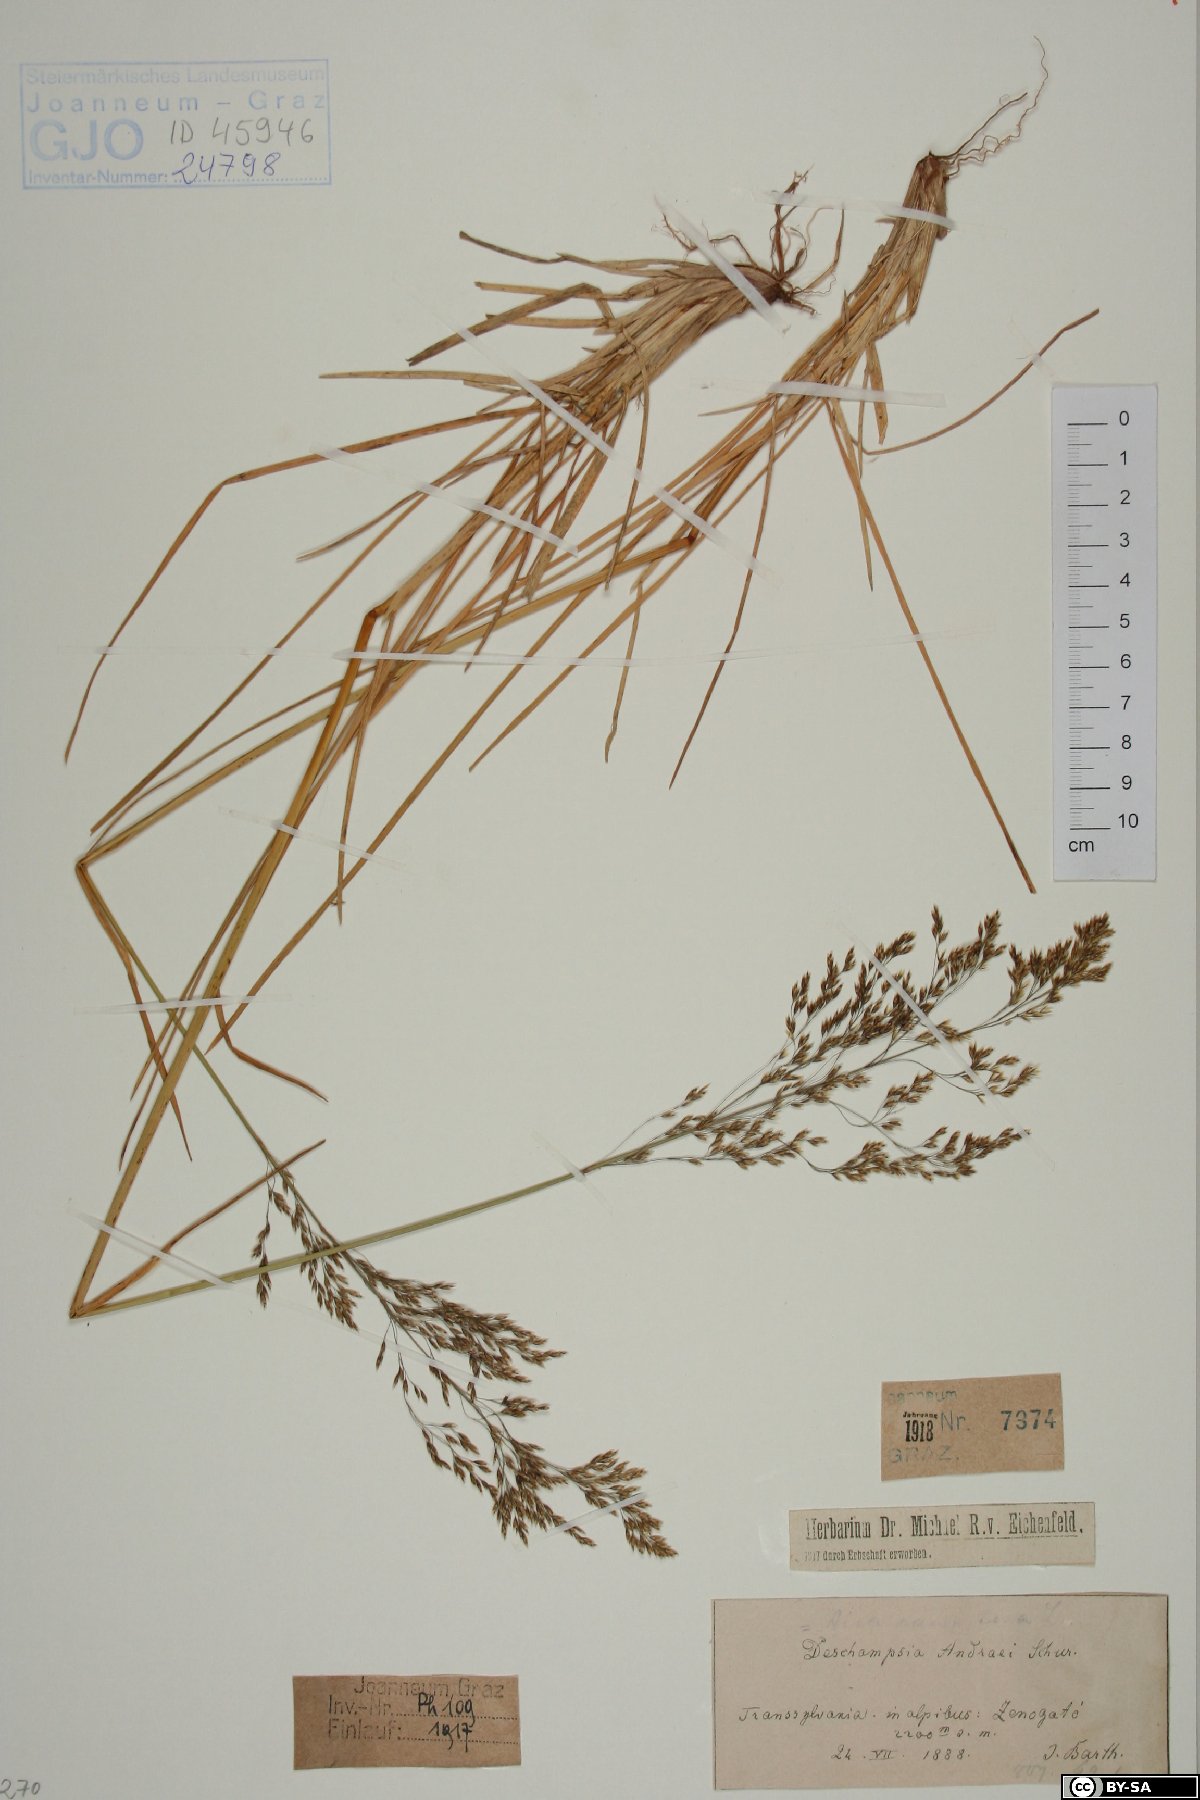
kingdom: Plantae
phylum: Tracheophyta
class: Liliopsida
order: Poales
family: Poaceae
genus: Deschampsia
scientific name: Deschampsia cespitosa
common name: Tufted hair-grass
